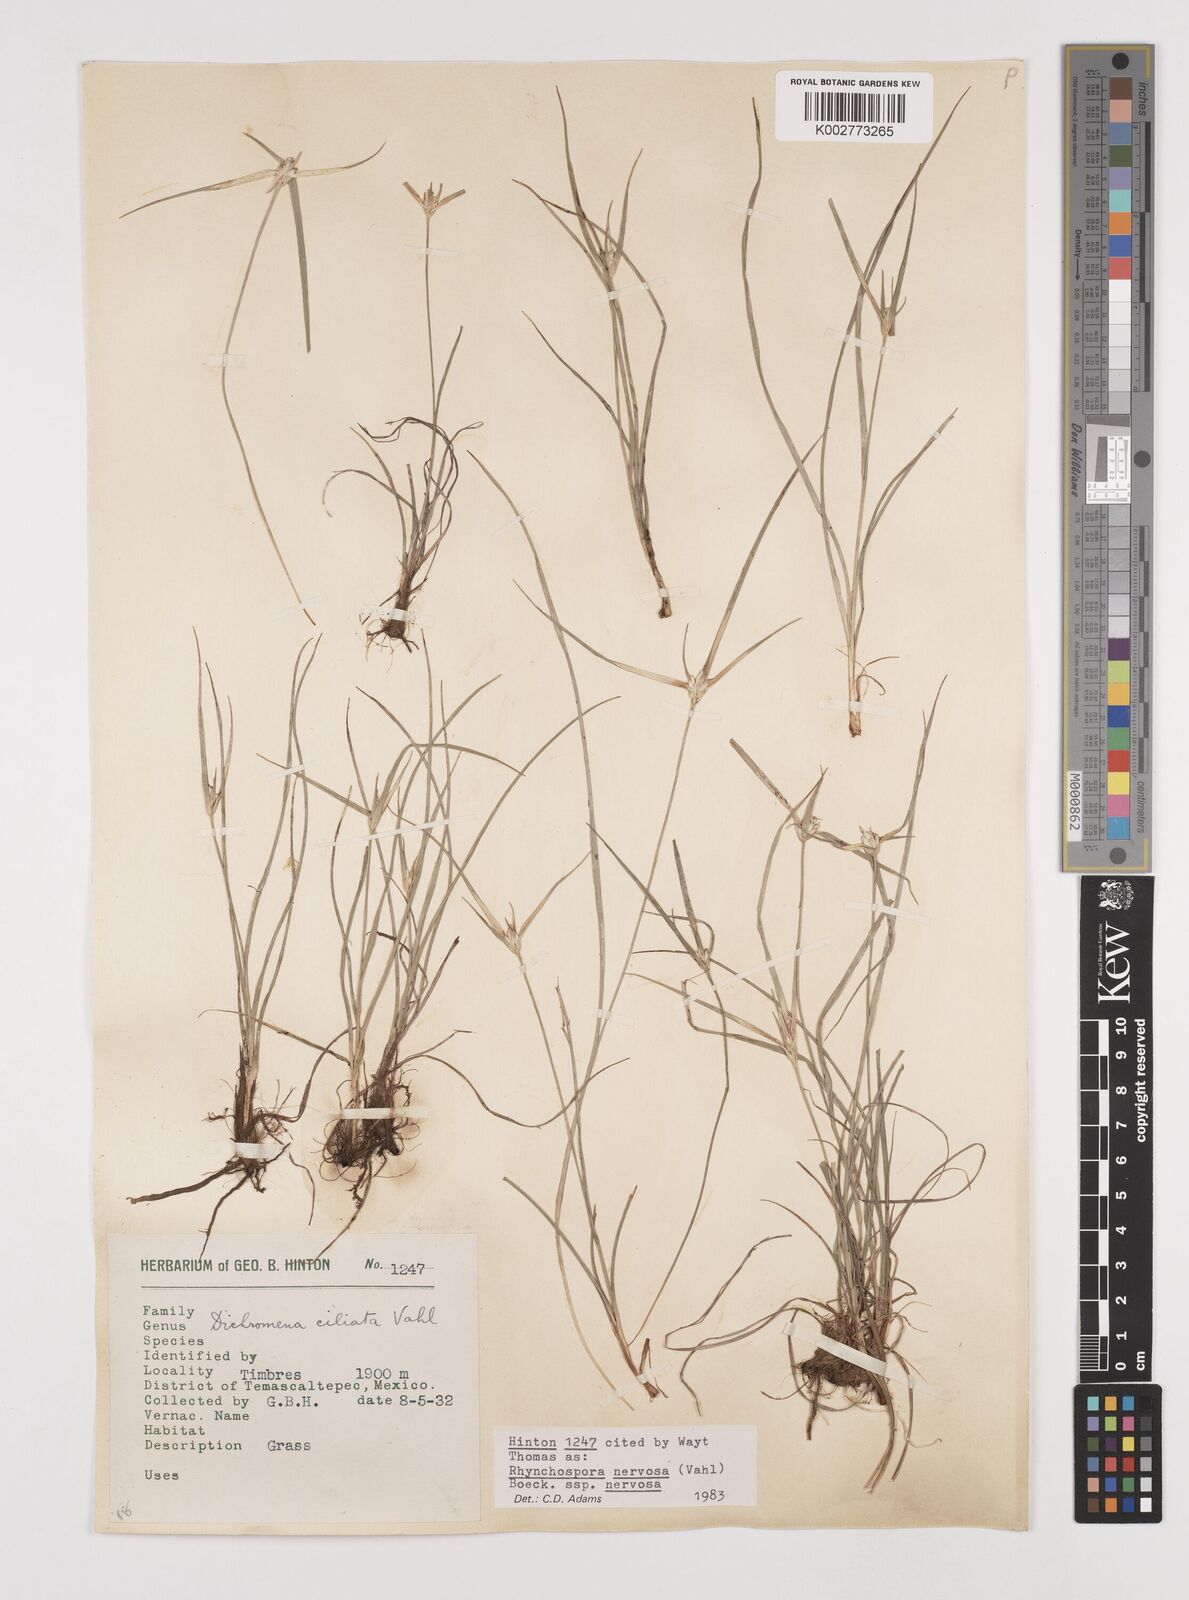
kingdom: Plantae
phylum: Tracheophyta
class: Liliopsida
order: Poales
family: Cyperaceae
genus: Rhynchospora
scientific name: Rhynchospora nervosa
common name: Star sedge
